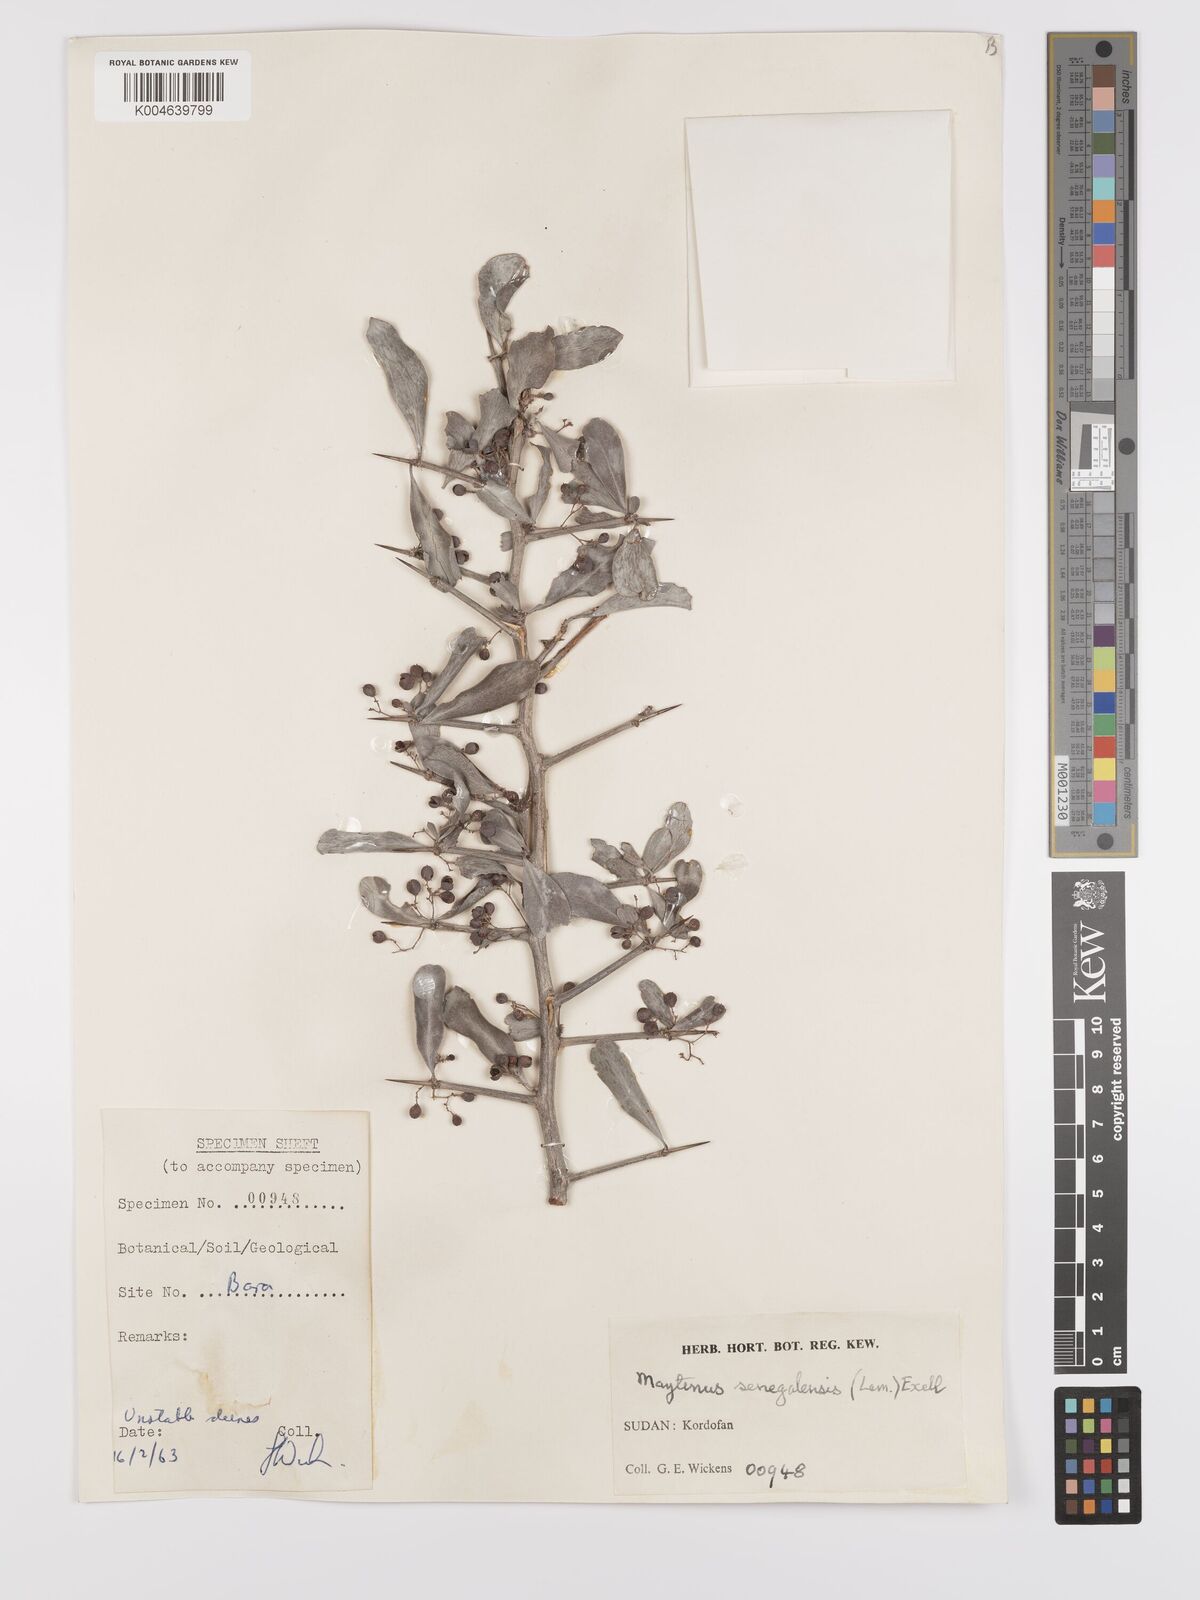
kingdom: Plantae
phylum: Tracheophyta
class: Magnoliopsida
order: Celastrales
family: Celastraceae
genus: Gymnosporia
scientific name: Gymnosporia senegalensis
